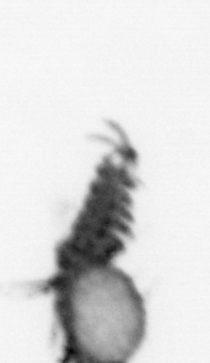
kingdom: Animalia
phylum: Annelida
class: Polychaeta
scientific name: Polychaeta
